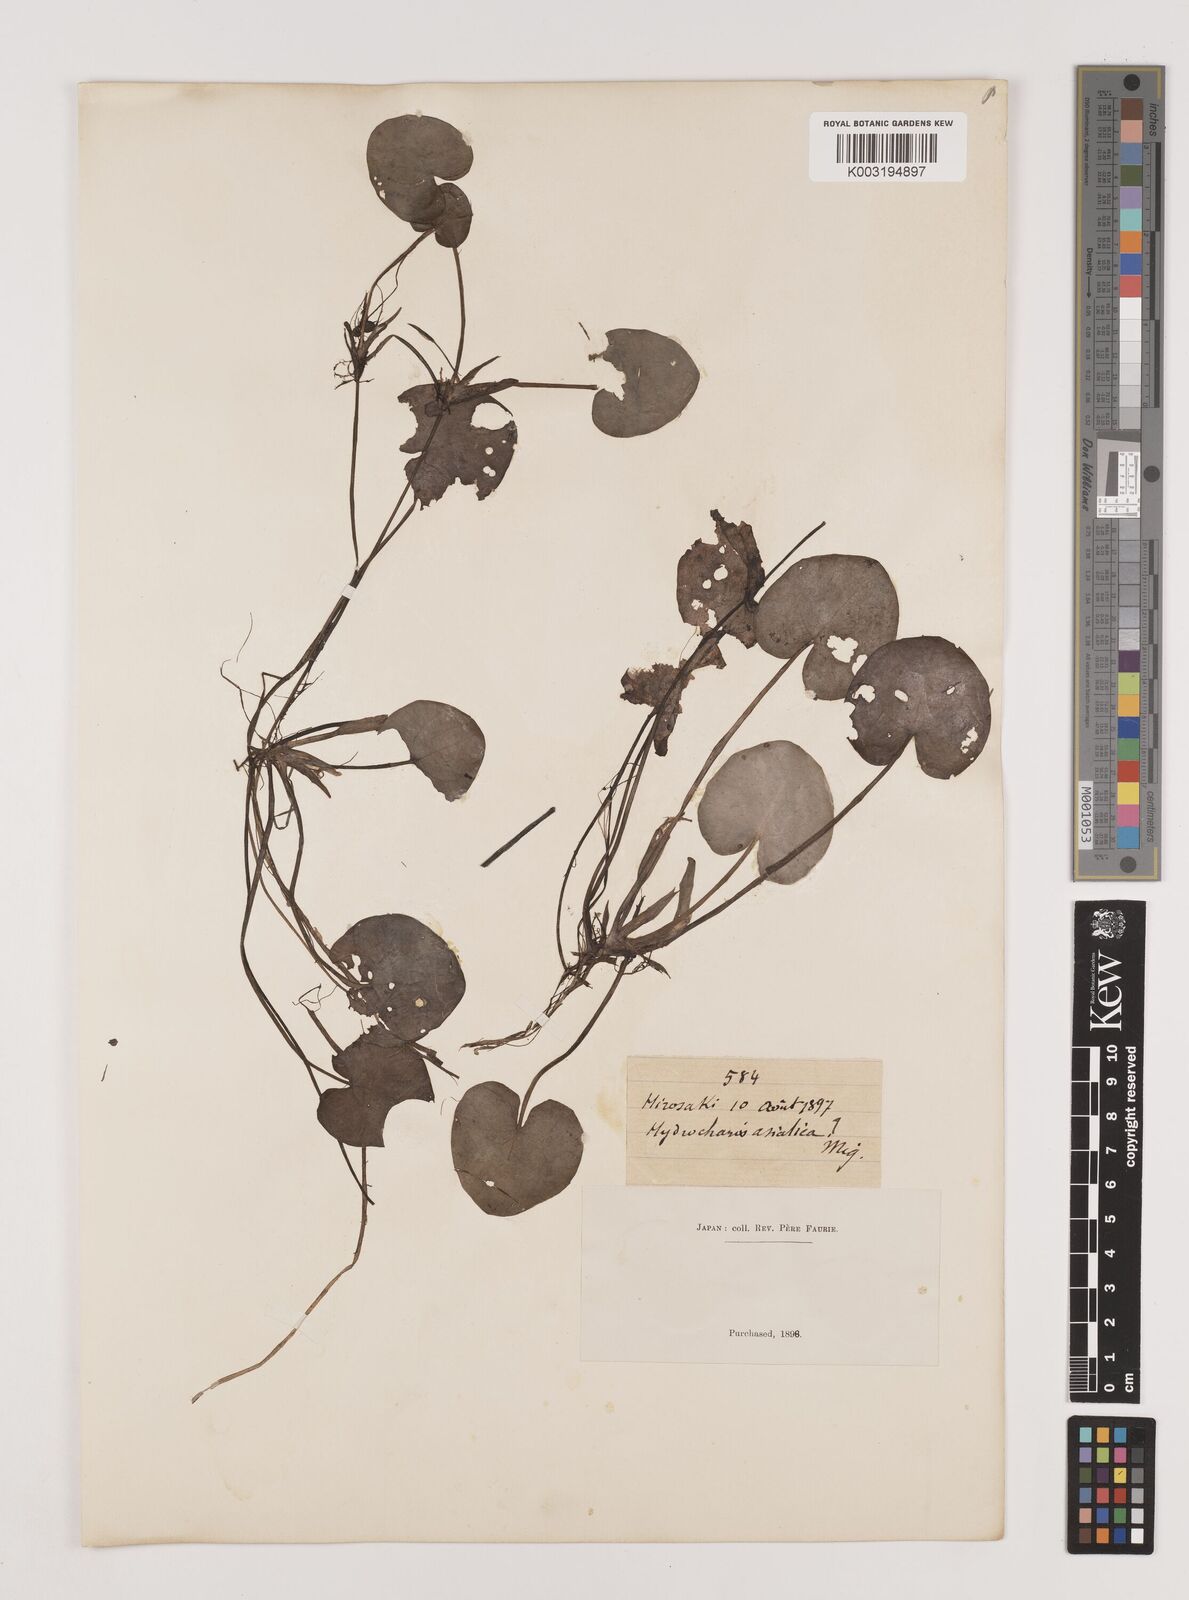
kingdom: Plantae
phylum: Tracheophyta
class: Liliopsida
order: Alismatales
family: Hydrocharitaceae
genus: Hydrocharis
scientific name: Hydrocharis dubia
